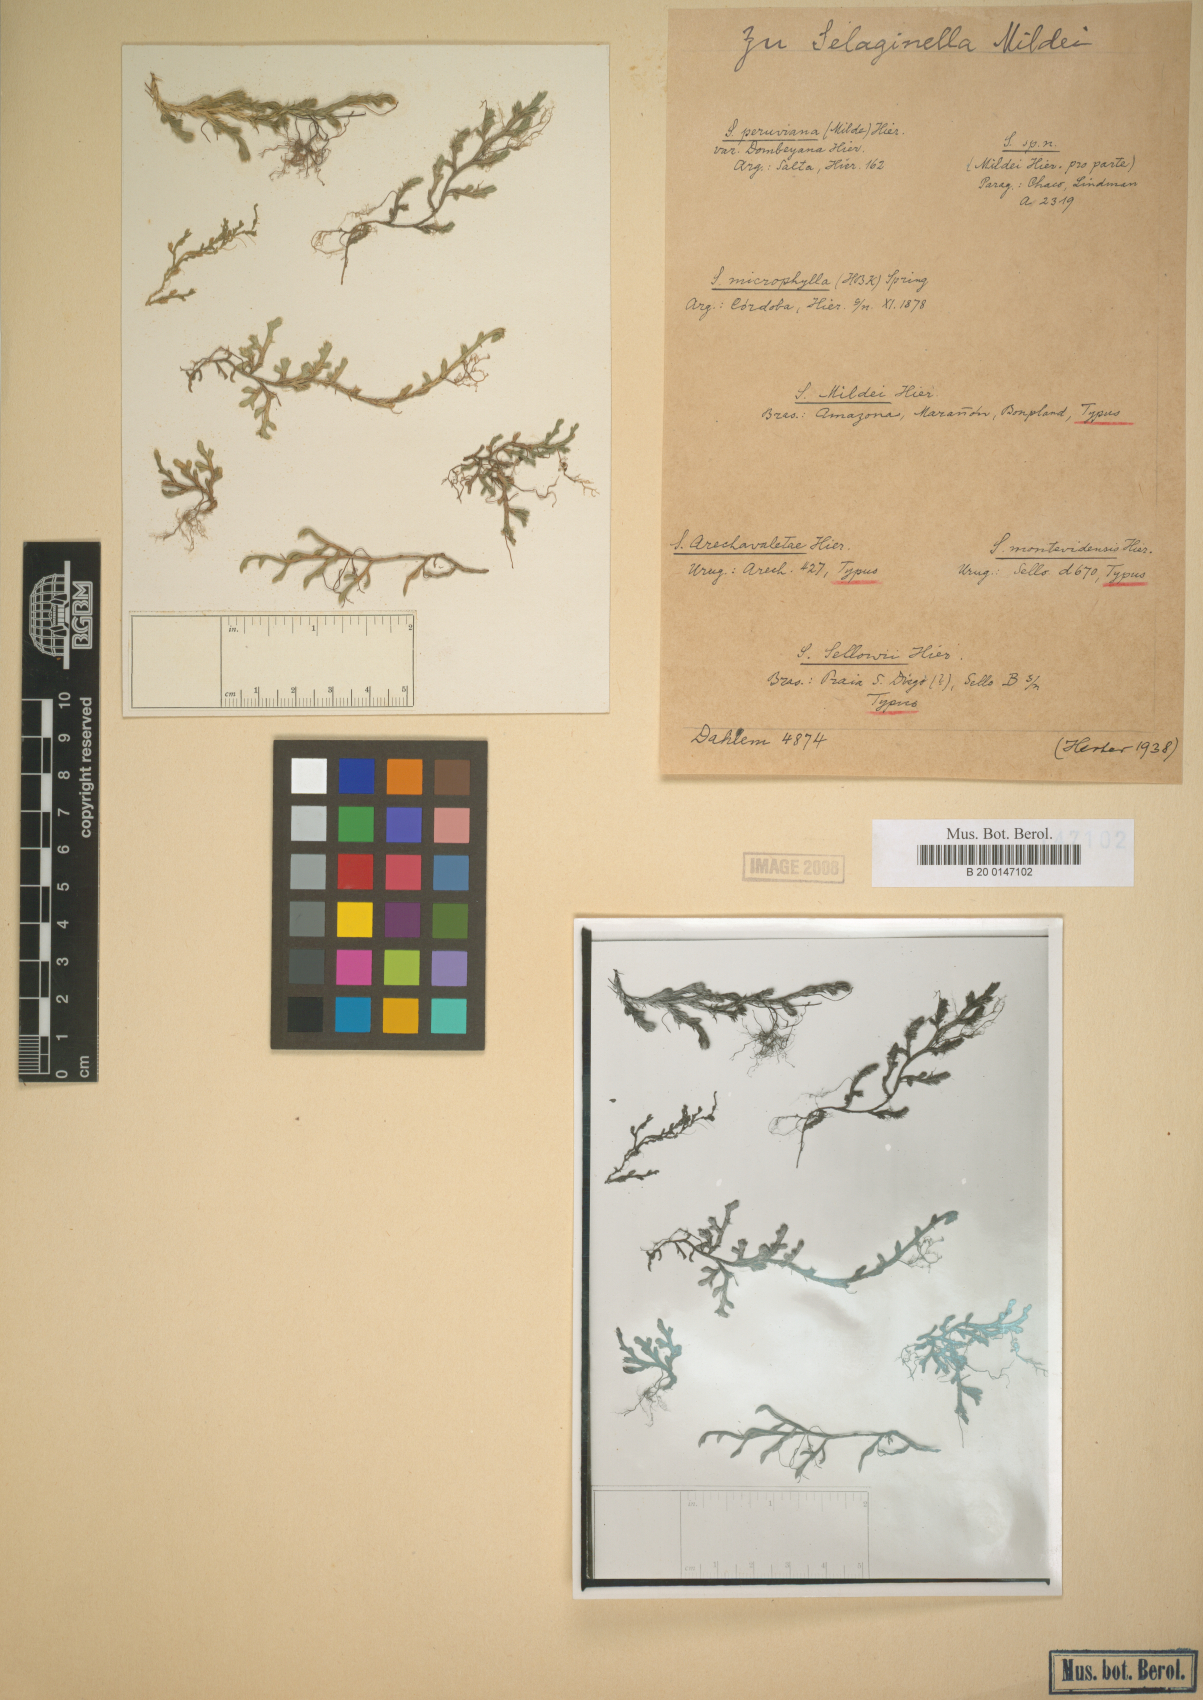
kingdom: Plantae
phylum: Tracheophyta
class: Lycopodiopsida
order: Selaginellales
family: Selaginellaceae
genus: Selaginella
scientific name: Selaginella sellowii
